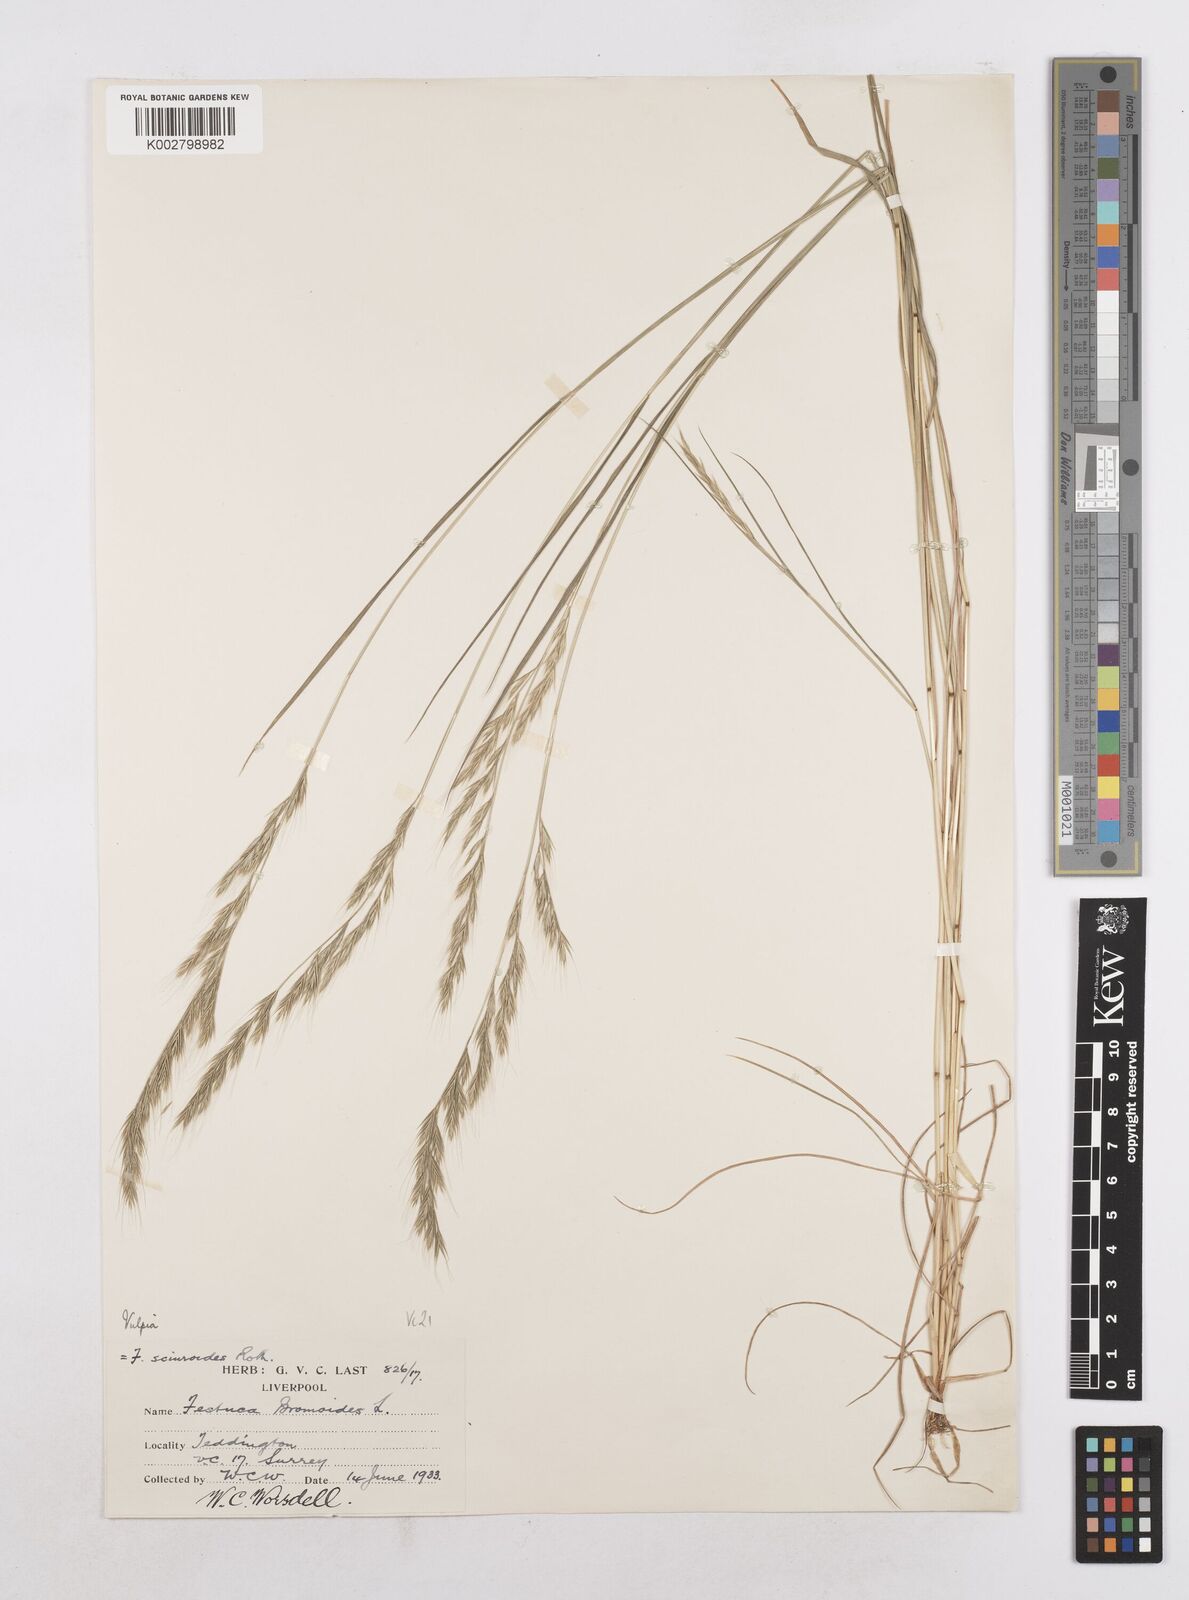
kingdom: Plantae
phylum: Tracheophyta
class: Liliopsida
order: Poales
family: Poaceae
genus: Festuca
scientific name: Festuca bromoides
